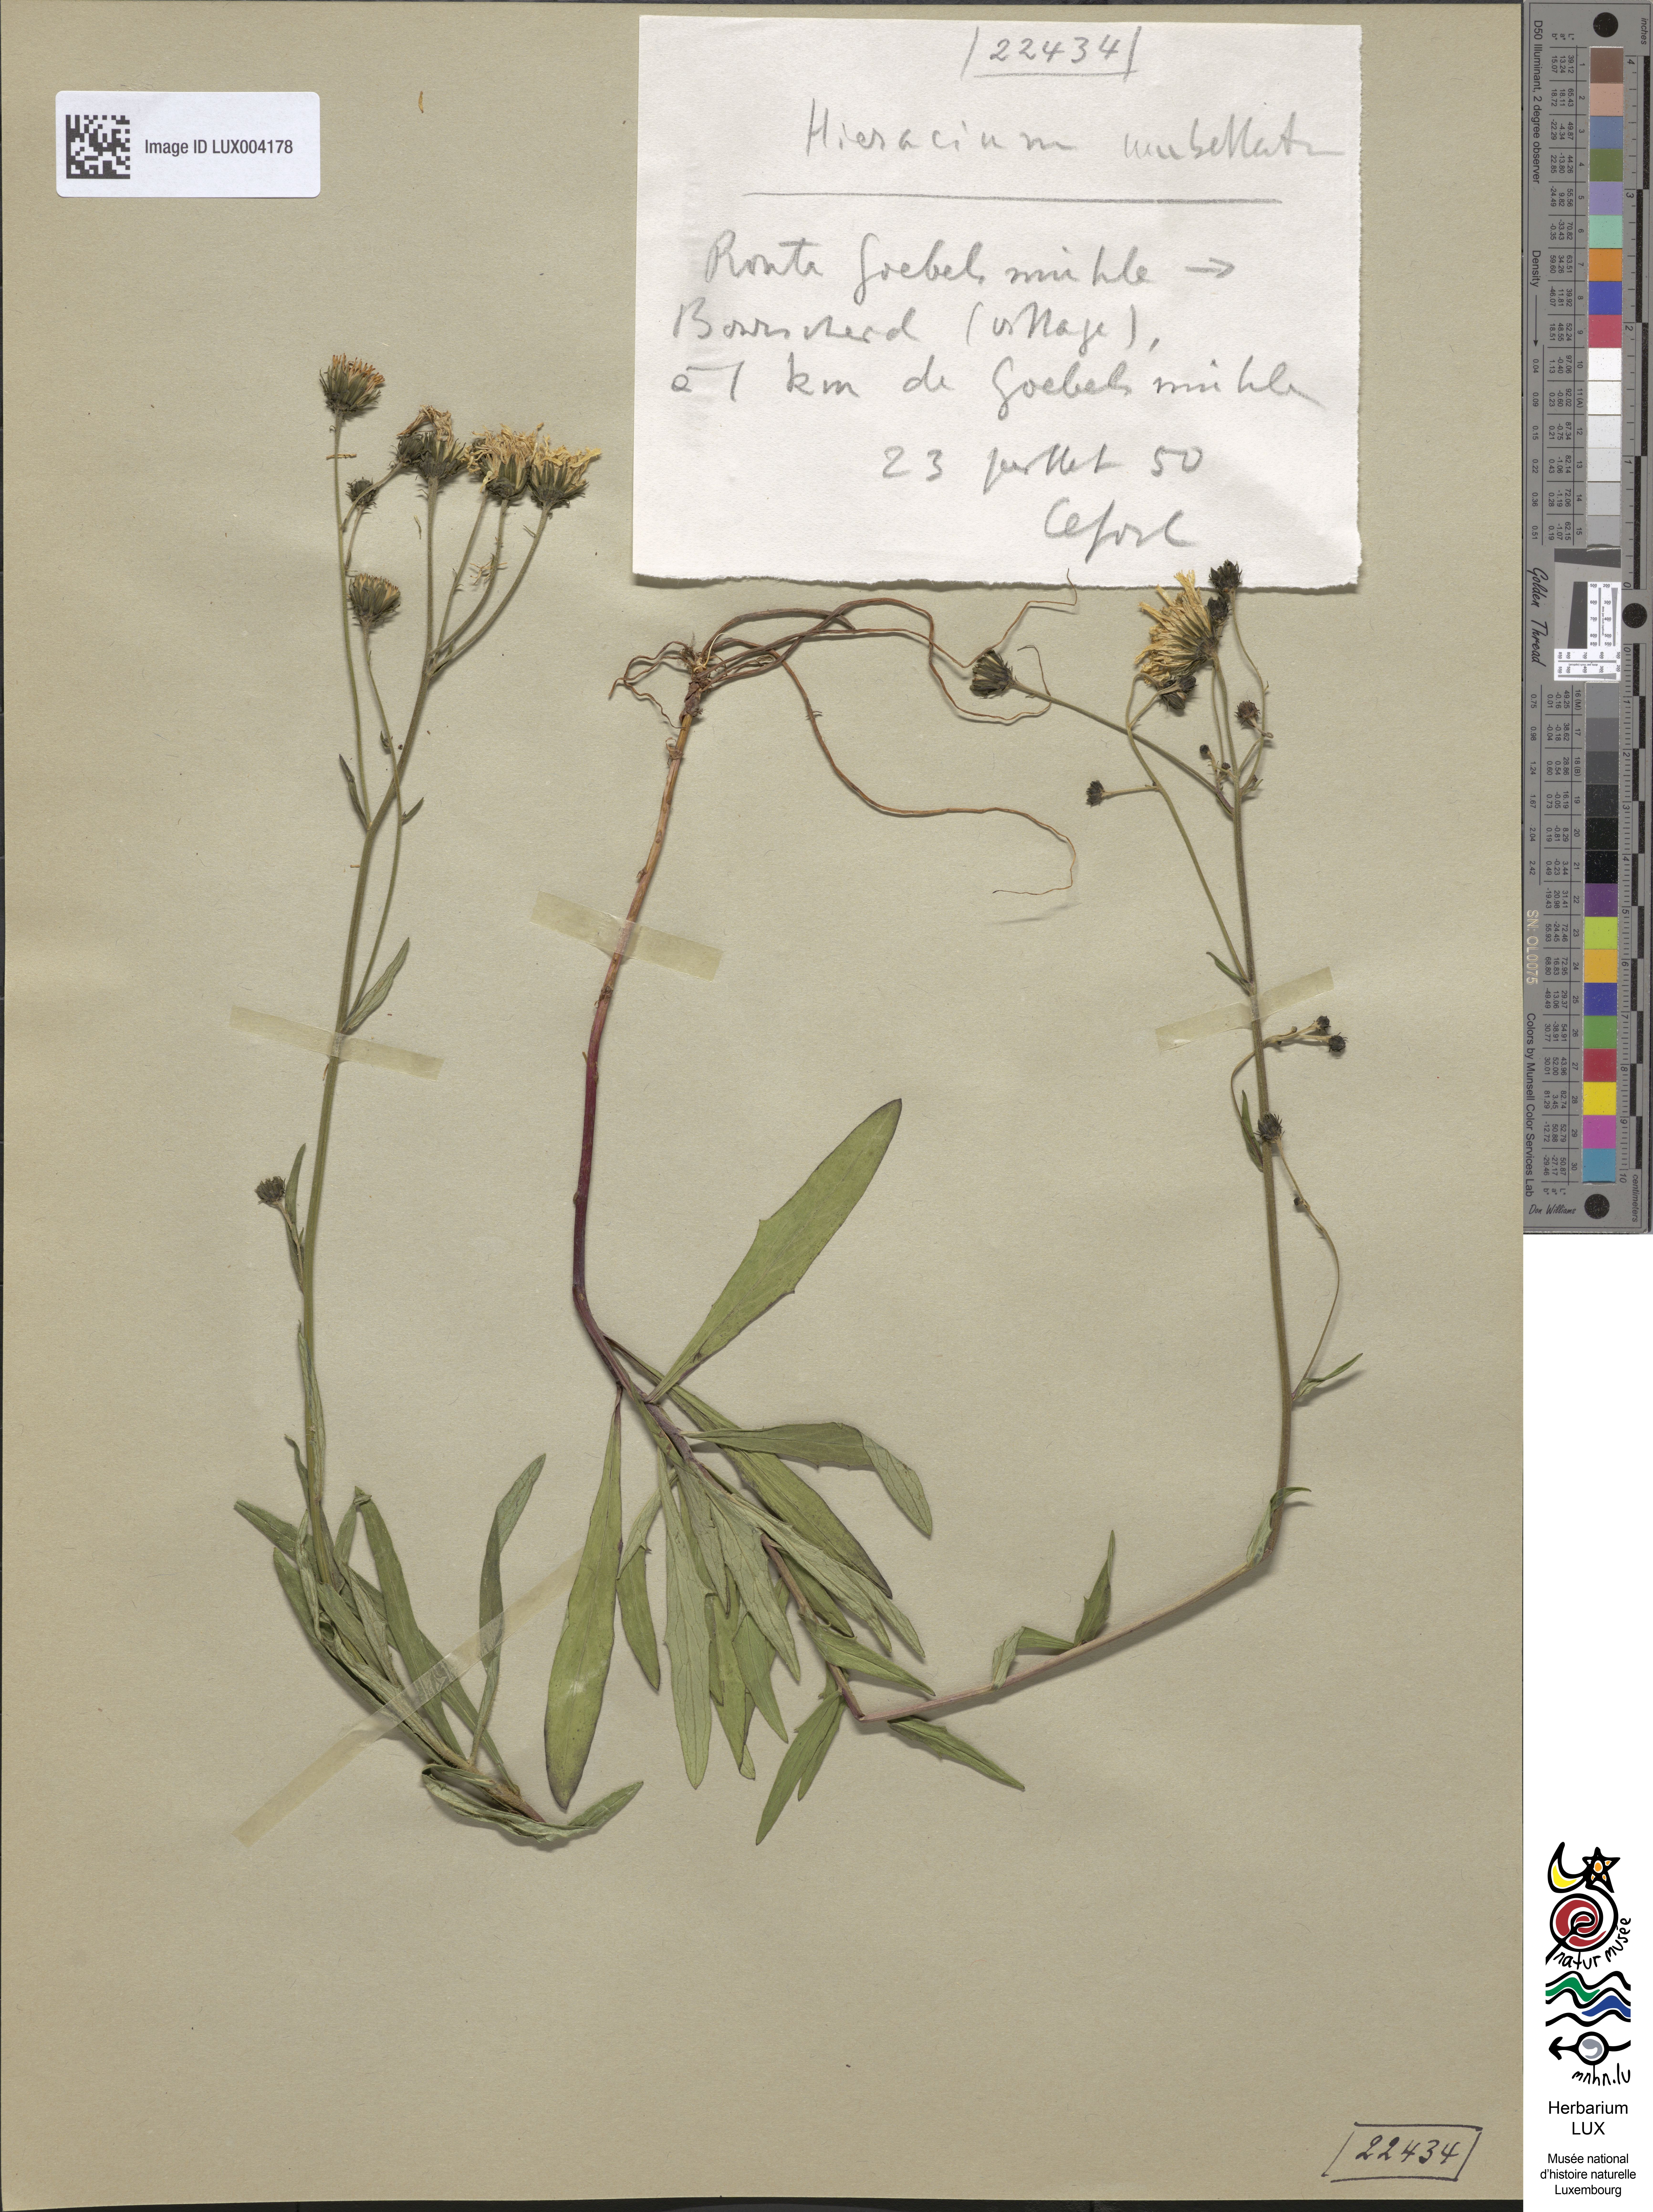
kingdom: Plantae
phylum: Tracheophyta
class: Magnoliopsida
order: Asterales
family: Asteraceae
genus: Hieracium
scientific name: Hieracium umbellatum
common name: Northern hawkweed
